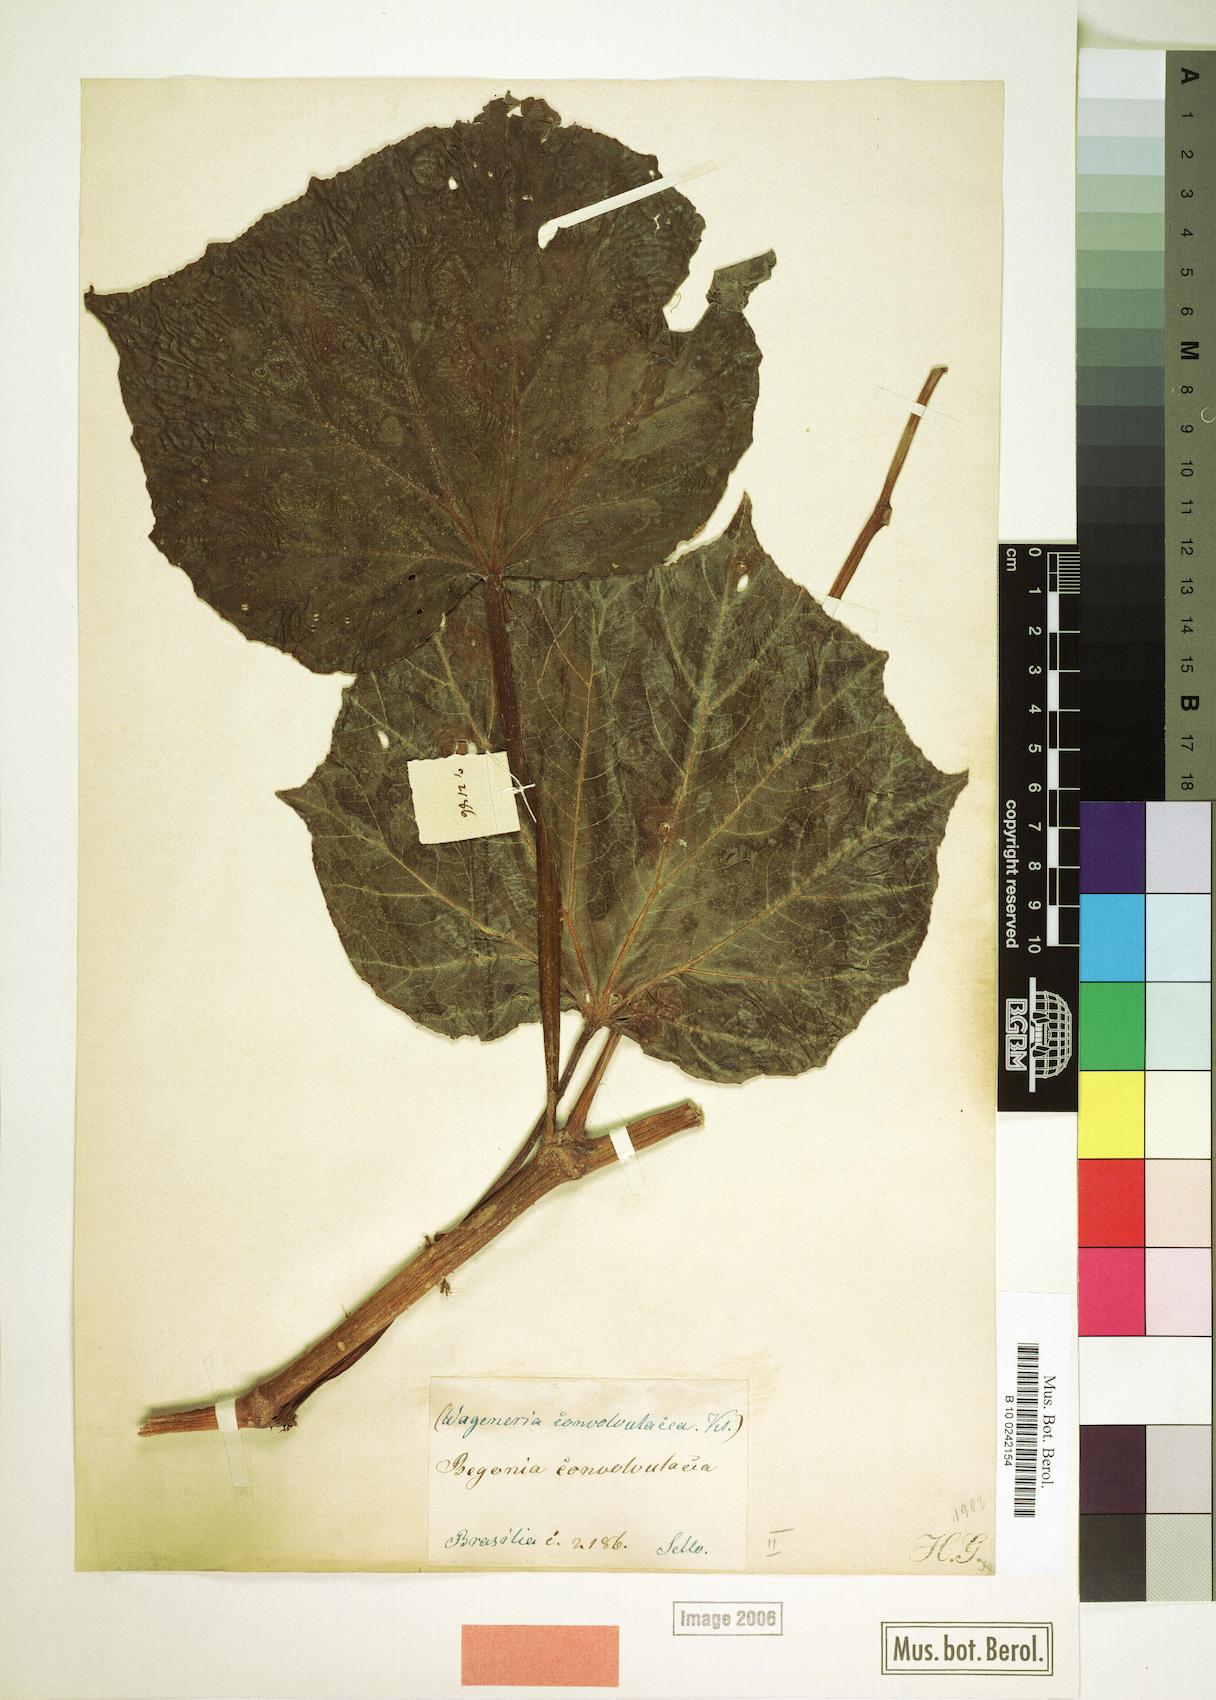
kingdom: Plantae
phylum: Tracheophyta
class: Magnoliopsida
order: Cucurbitales
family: Begoniaceae
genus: Begonia
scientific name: Begonia convolvulacea
